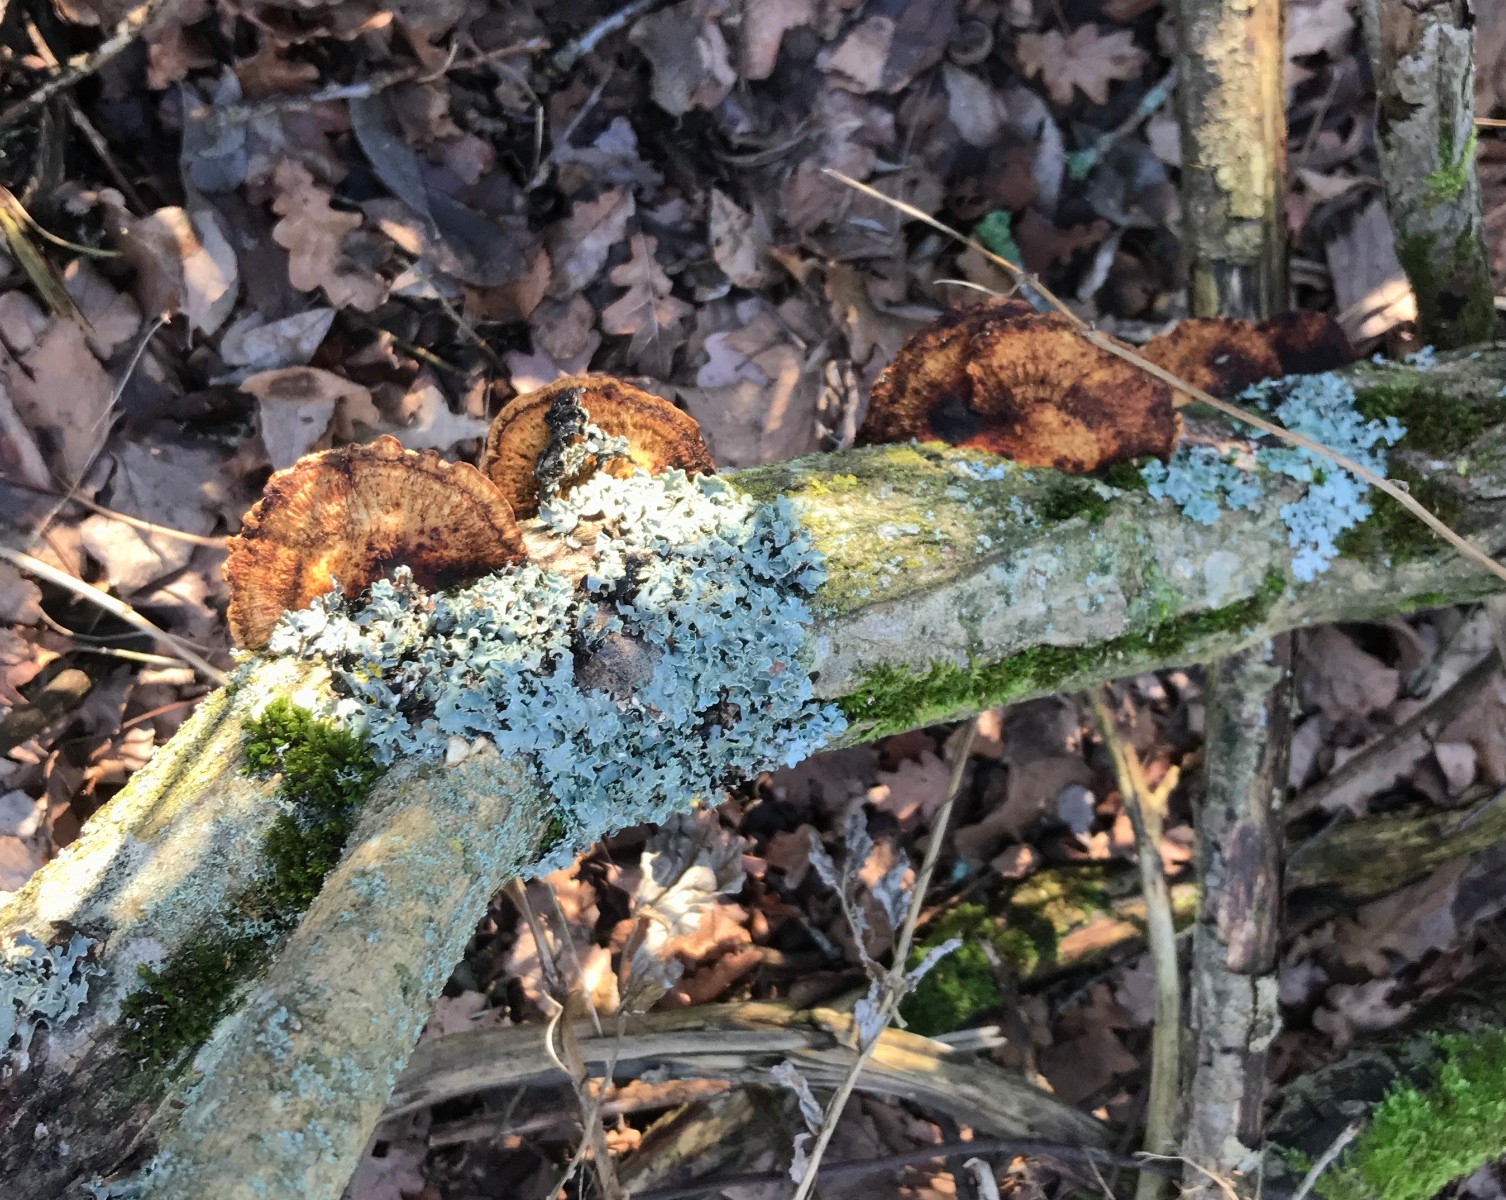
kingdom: Fungi
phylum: Basidiomycota
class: Agaricomycetes
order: Polyporales
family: Polyporaceae
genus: Daedaleopsis
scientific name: Daedaleopsis confragosa
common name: rødmende læderporesvamp
